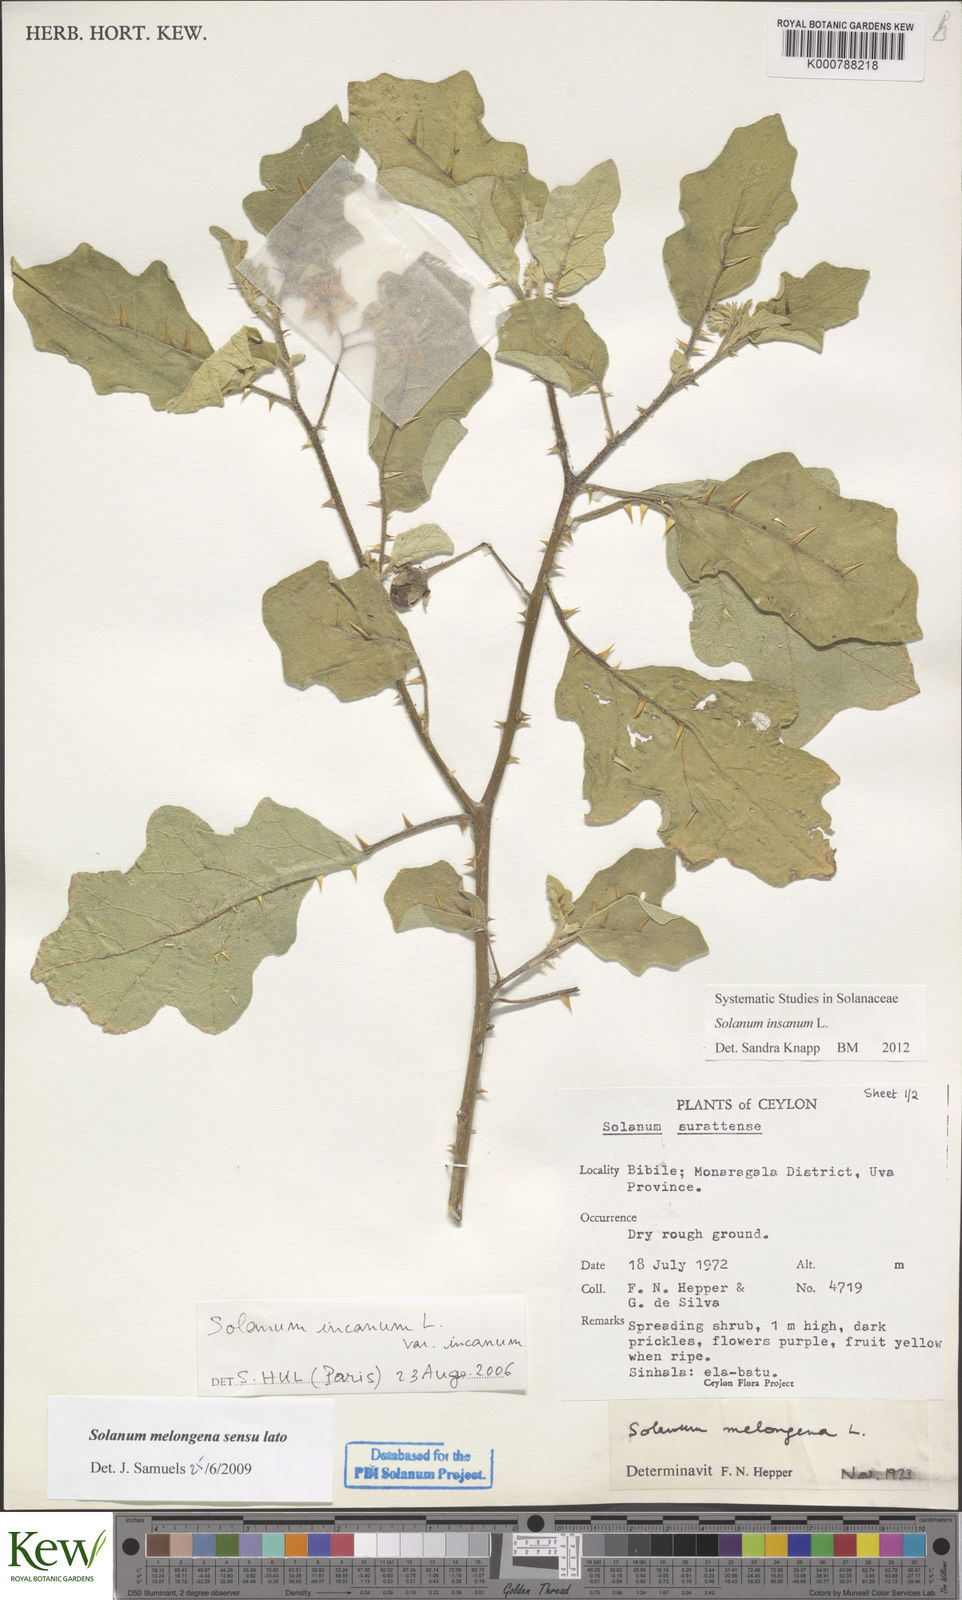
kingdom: Plantae
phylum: Tracheophyta
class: Magnoliopsida
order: Solanales
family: Solanaceae
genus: Solanum
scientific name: Solanum insanum
